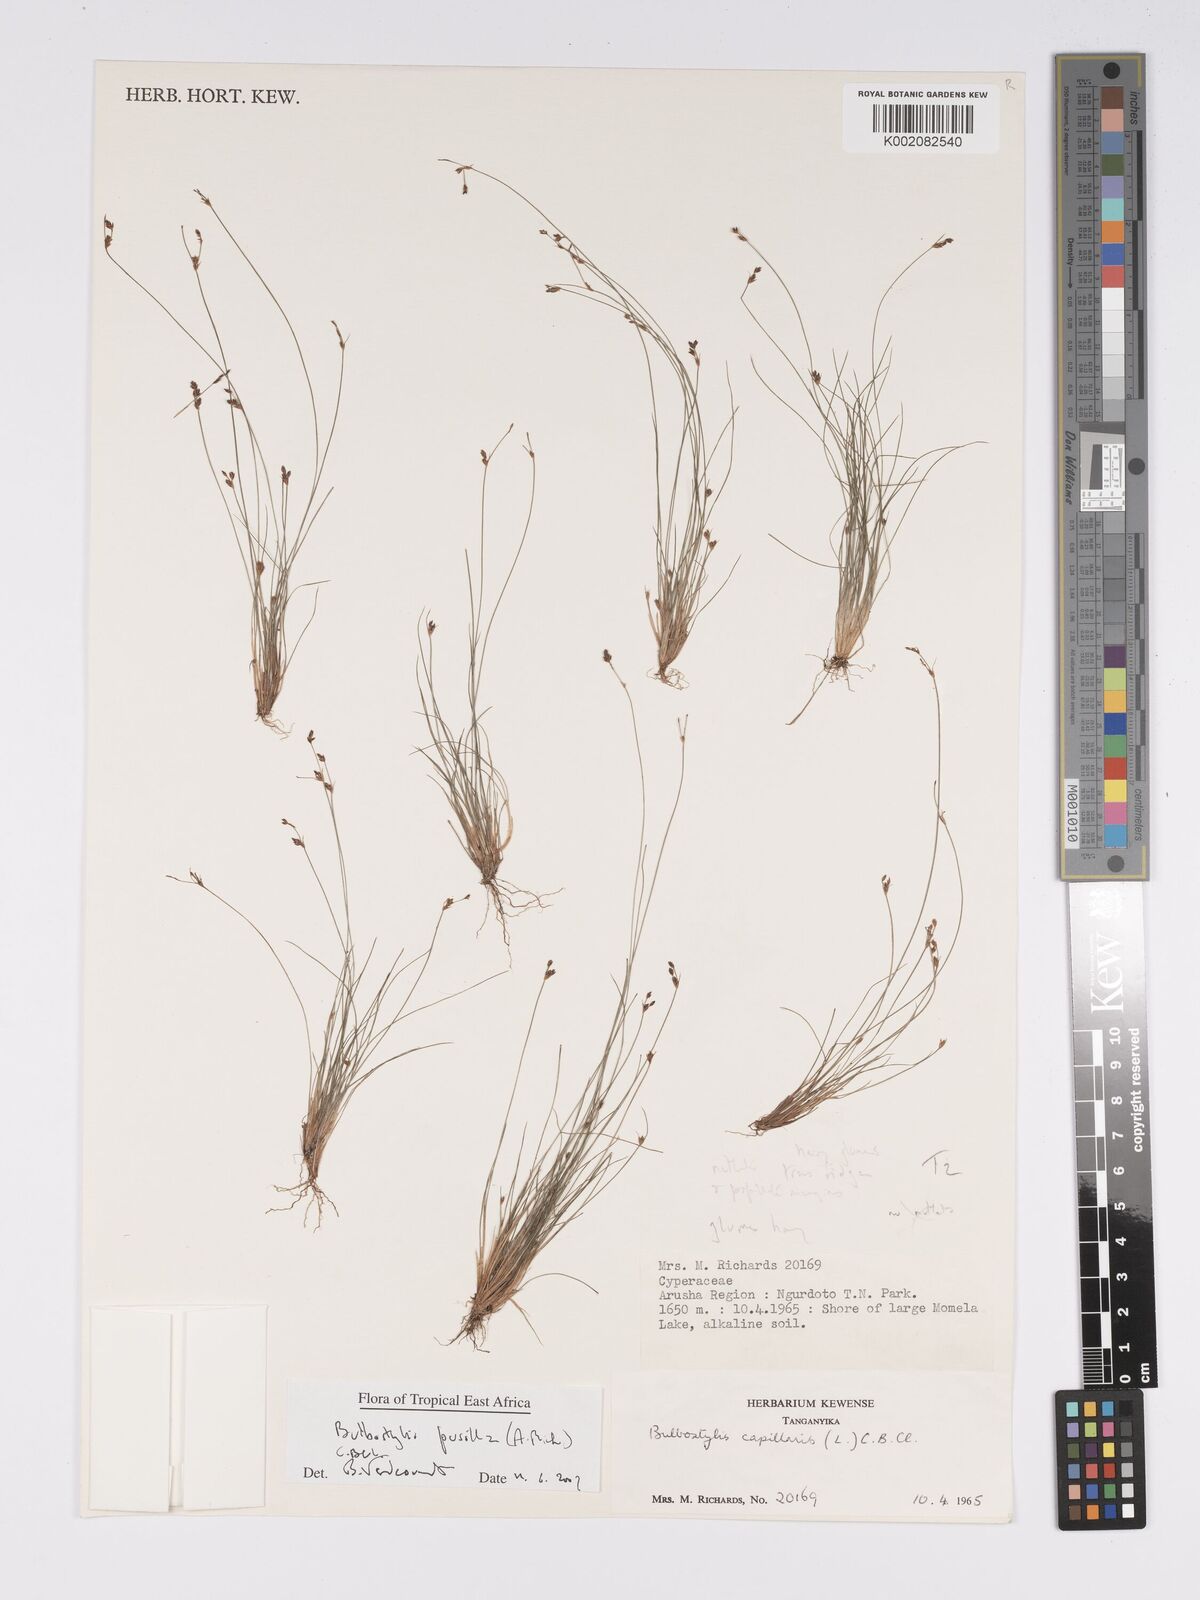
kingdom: Plantae
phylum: Tracheophyta
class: Liliopsida
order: Poales
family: Cyperaceae
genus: Bulbostylis
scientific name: Bulbostylis pusilla
